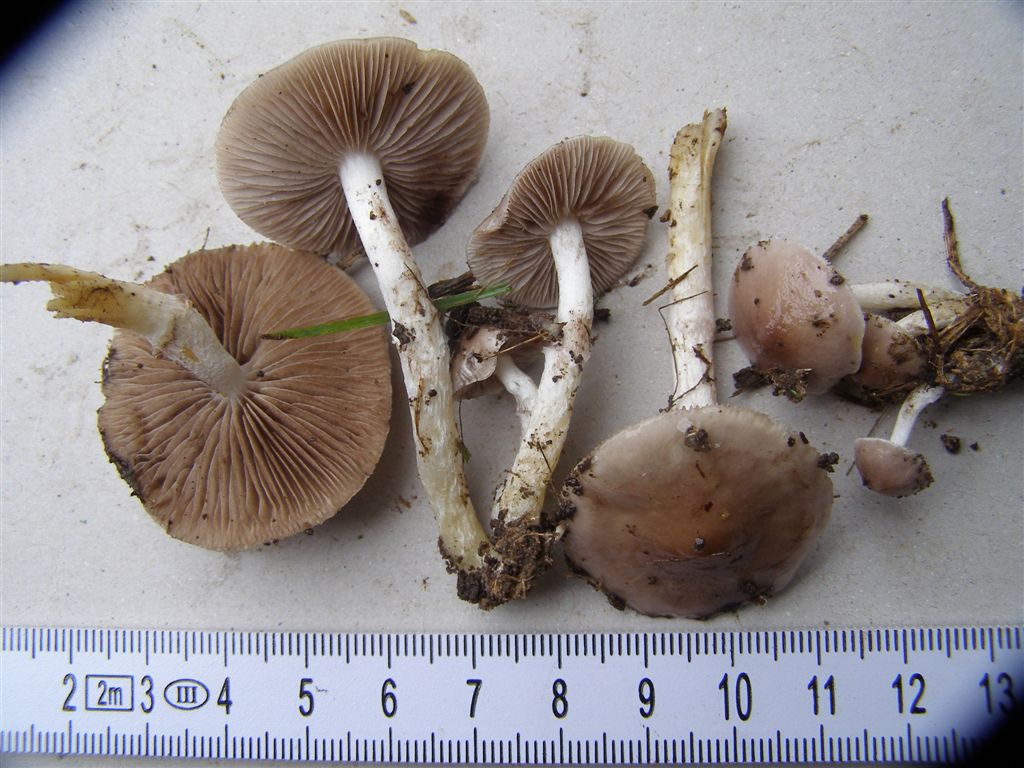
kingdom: Fungi
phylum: Basidiomycota
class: Agaricomycetes
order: Agaricales
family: Strophariaceae
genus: Stropharia
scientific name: Stropharia inuncta
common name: lillabrun bredblad
